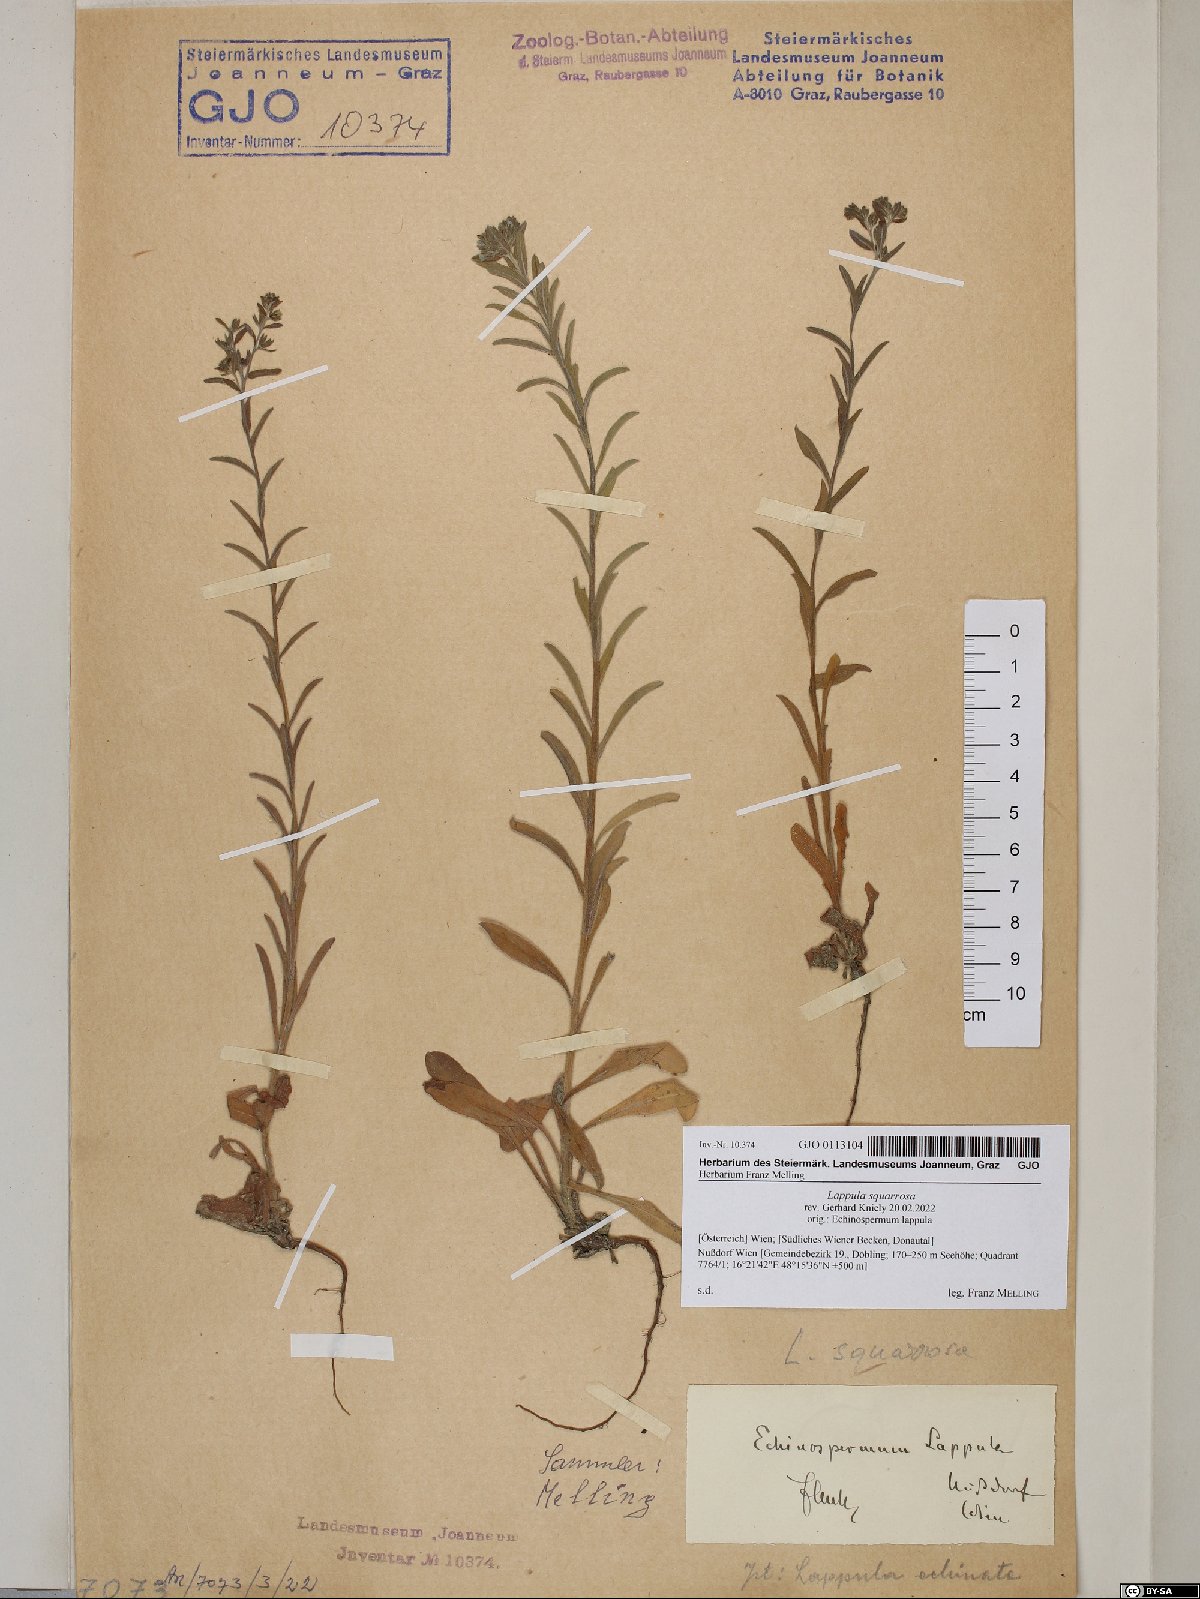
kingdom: Plantae
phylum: Tracheophyta
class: Magnoliopsida
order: Boraginales
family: Boraginaceae
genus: Lappula
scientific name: Lappula squarrosa
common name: European stickseed
